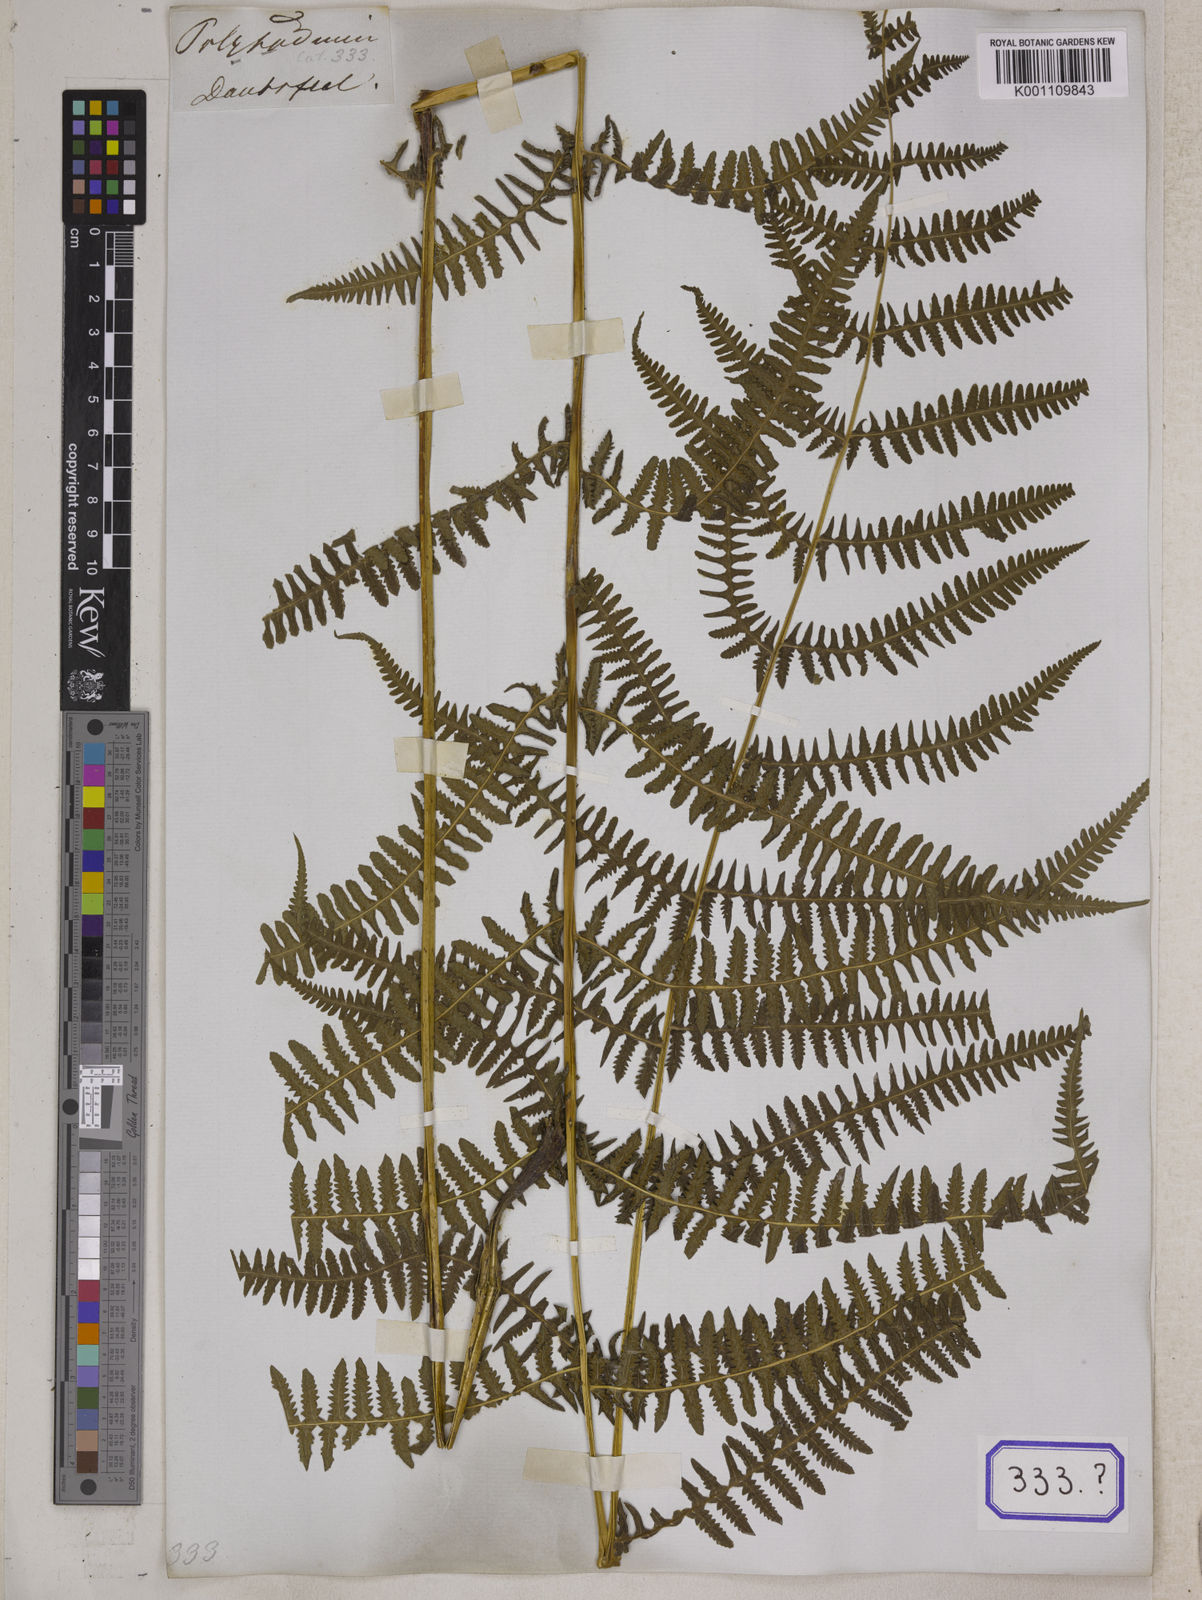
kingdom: Plantae
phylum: Tracheophyta
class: Polypodiopsida
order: Polypodiales
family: Thelypteridaceae
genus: Pseudophegopteris
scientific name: Pseudophegopteris paludosa
